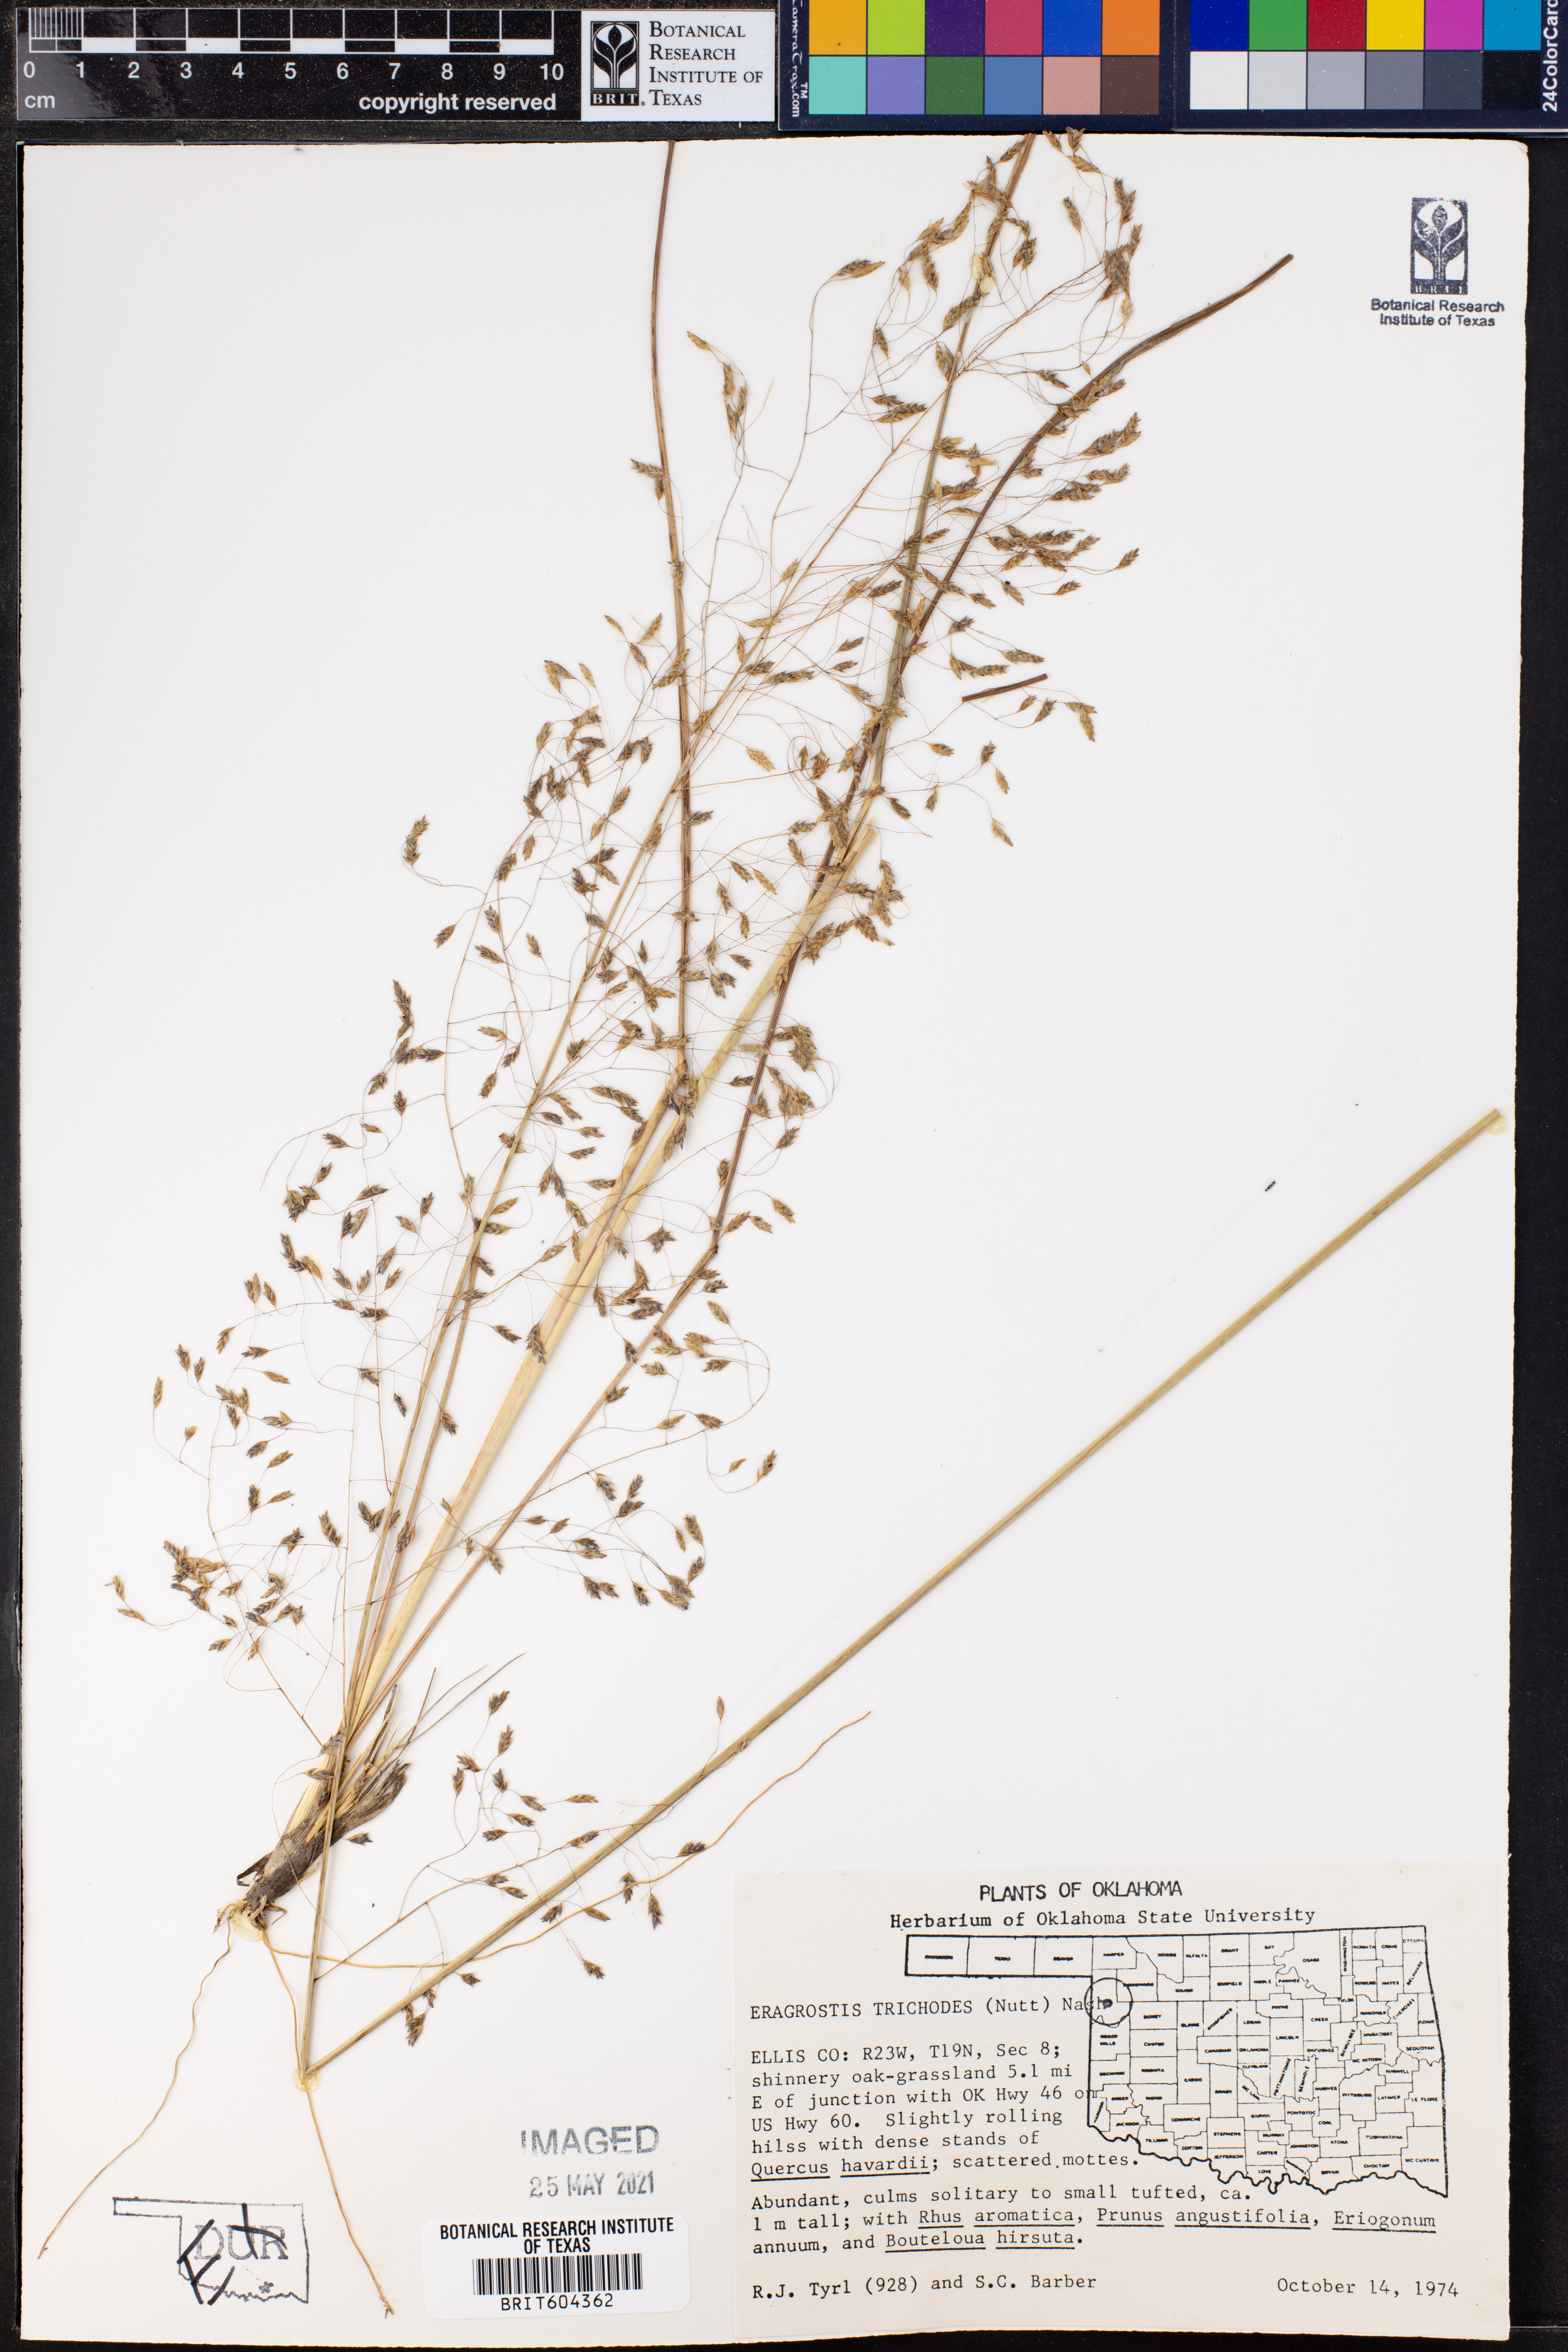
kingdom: Plantae
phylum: Tracheophyta
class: Liliopsida
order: Poales
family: Poaceae
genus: Eragrostis
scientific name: Eragrostis trichodes
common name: Sand love grass
